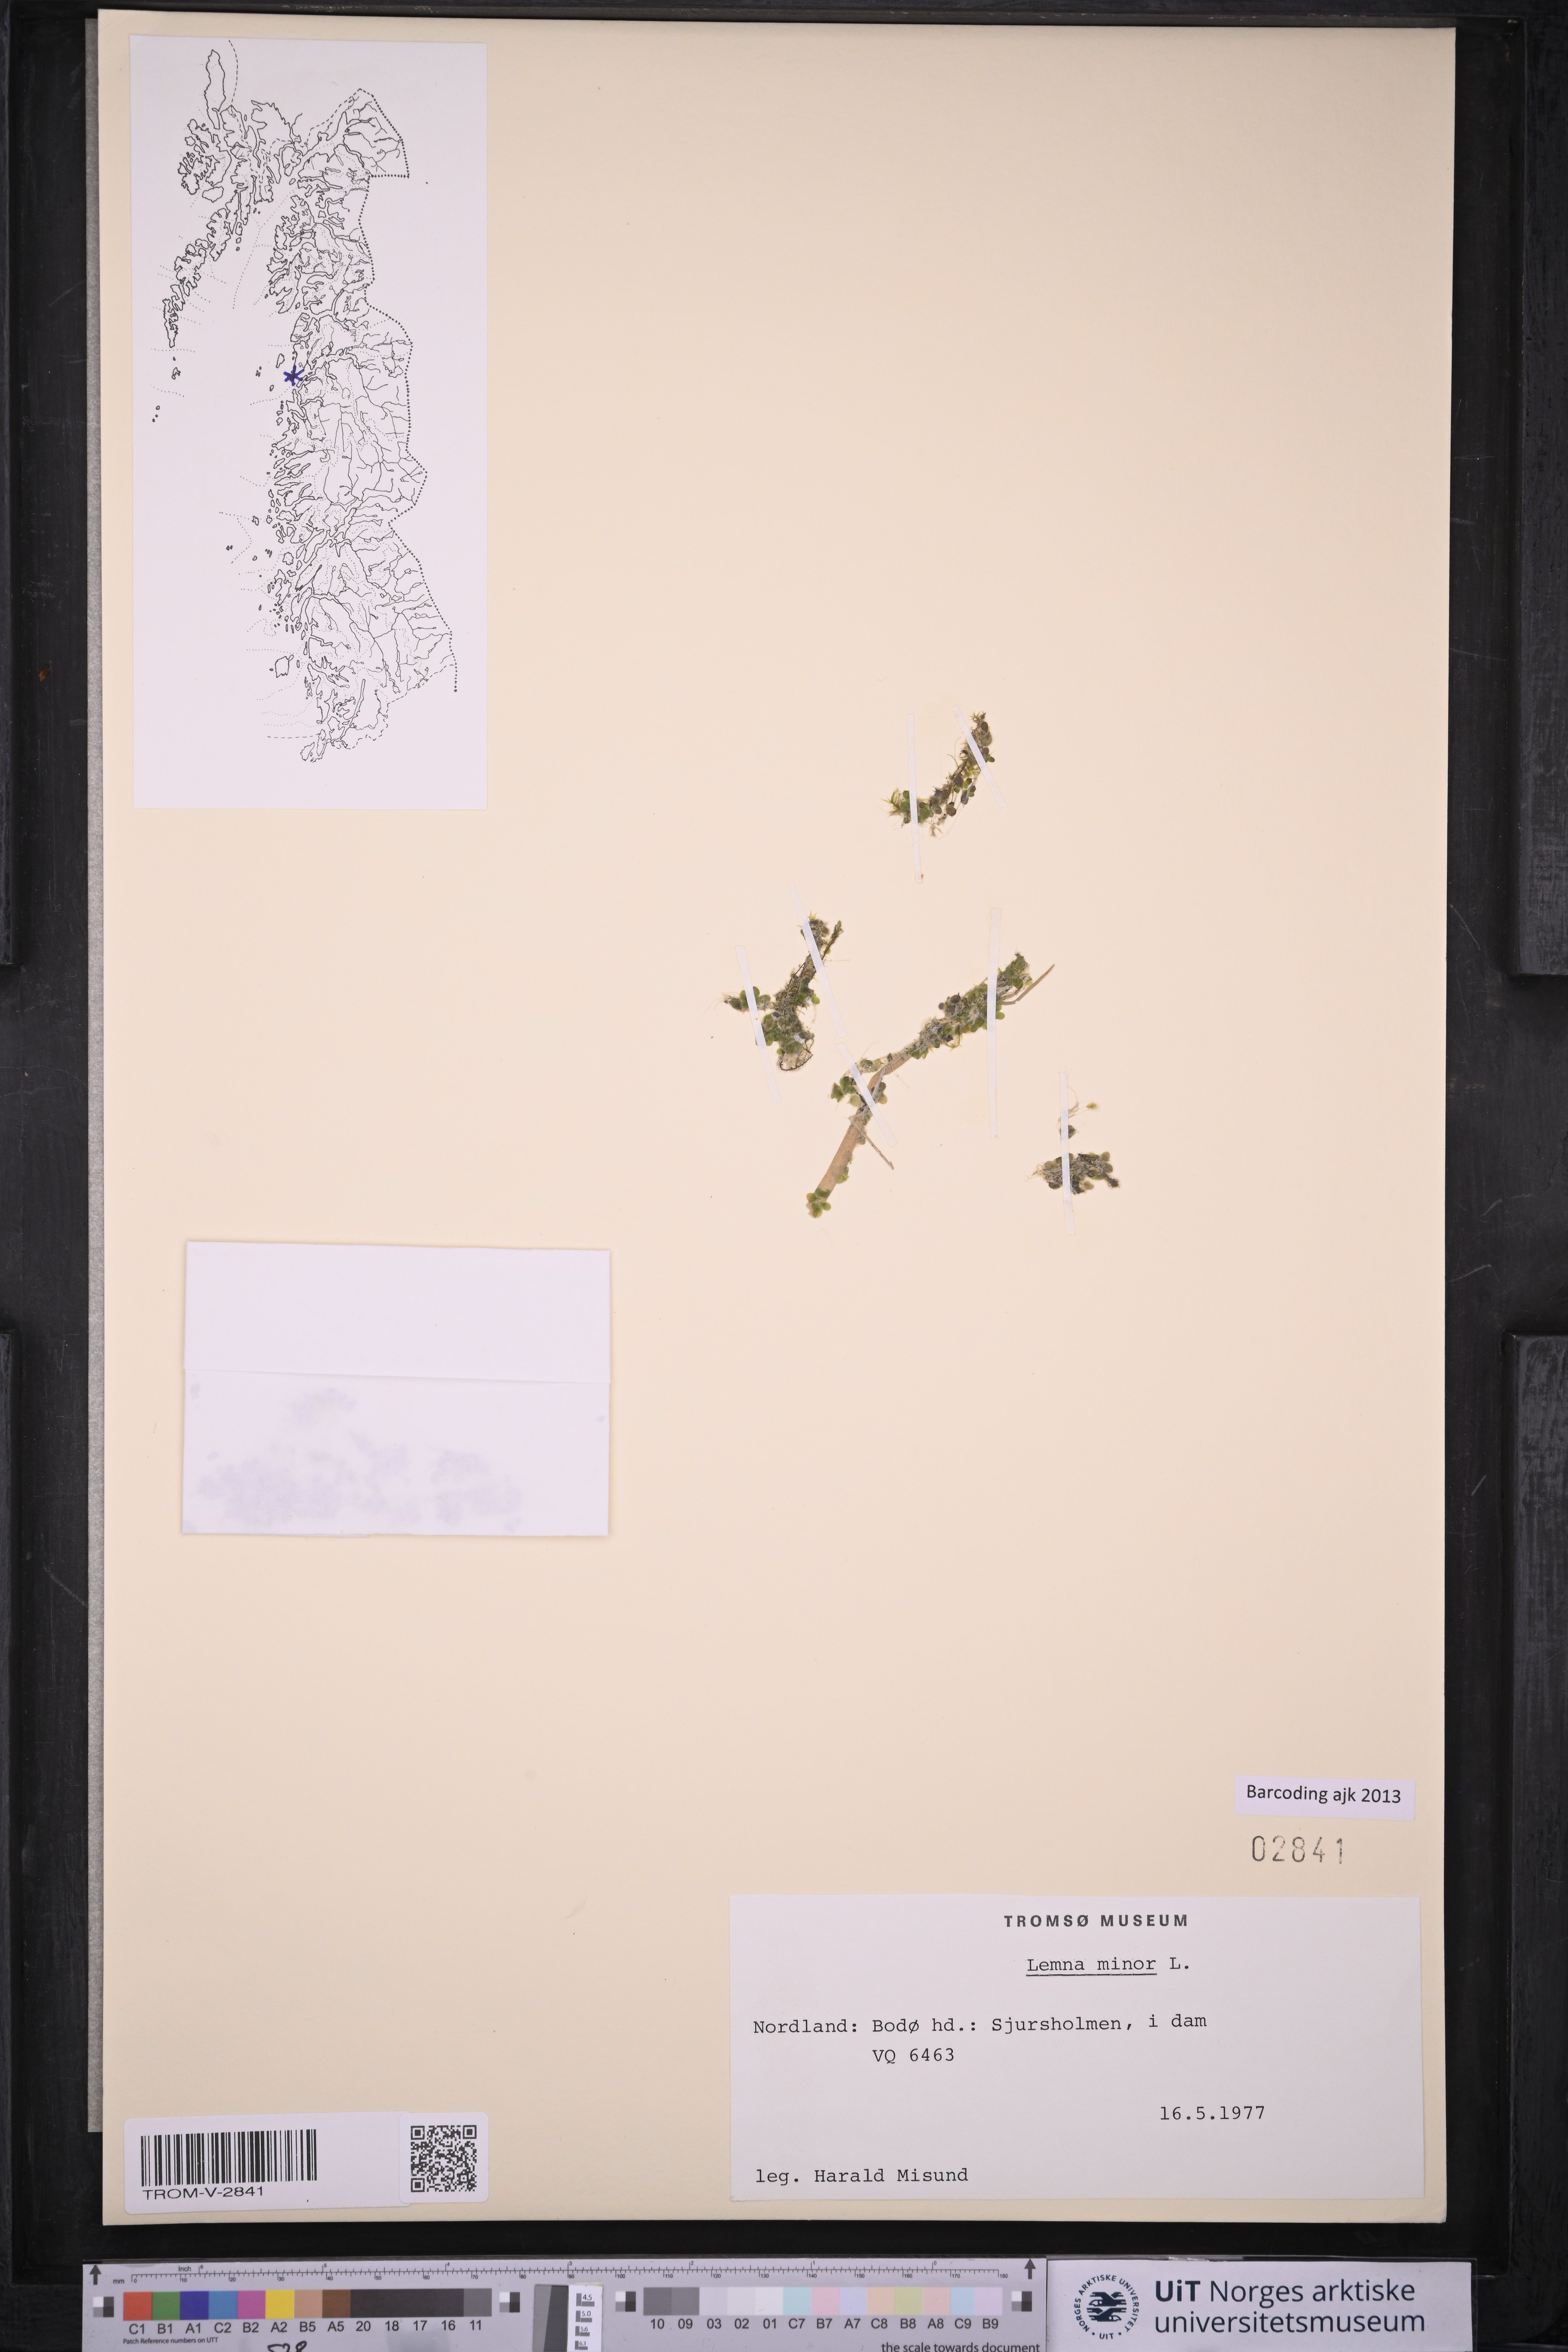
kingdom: Plantae
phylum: Tracheophyta
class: Liliopsida
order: Alismatales
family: Araceae
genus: Lemna
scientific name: Lemna minor
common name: Common duckweed
